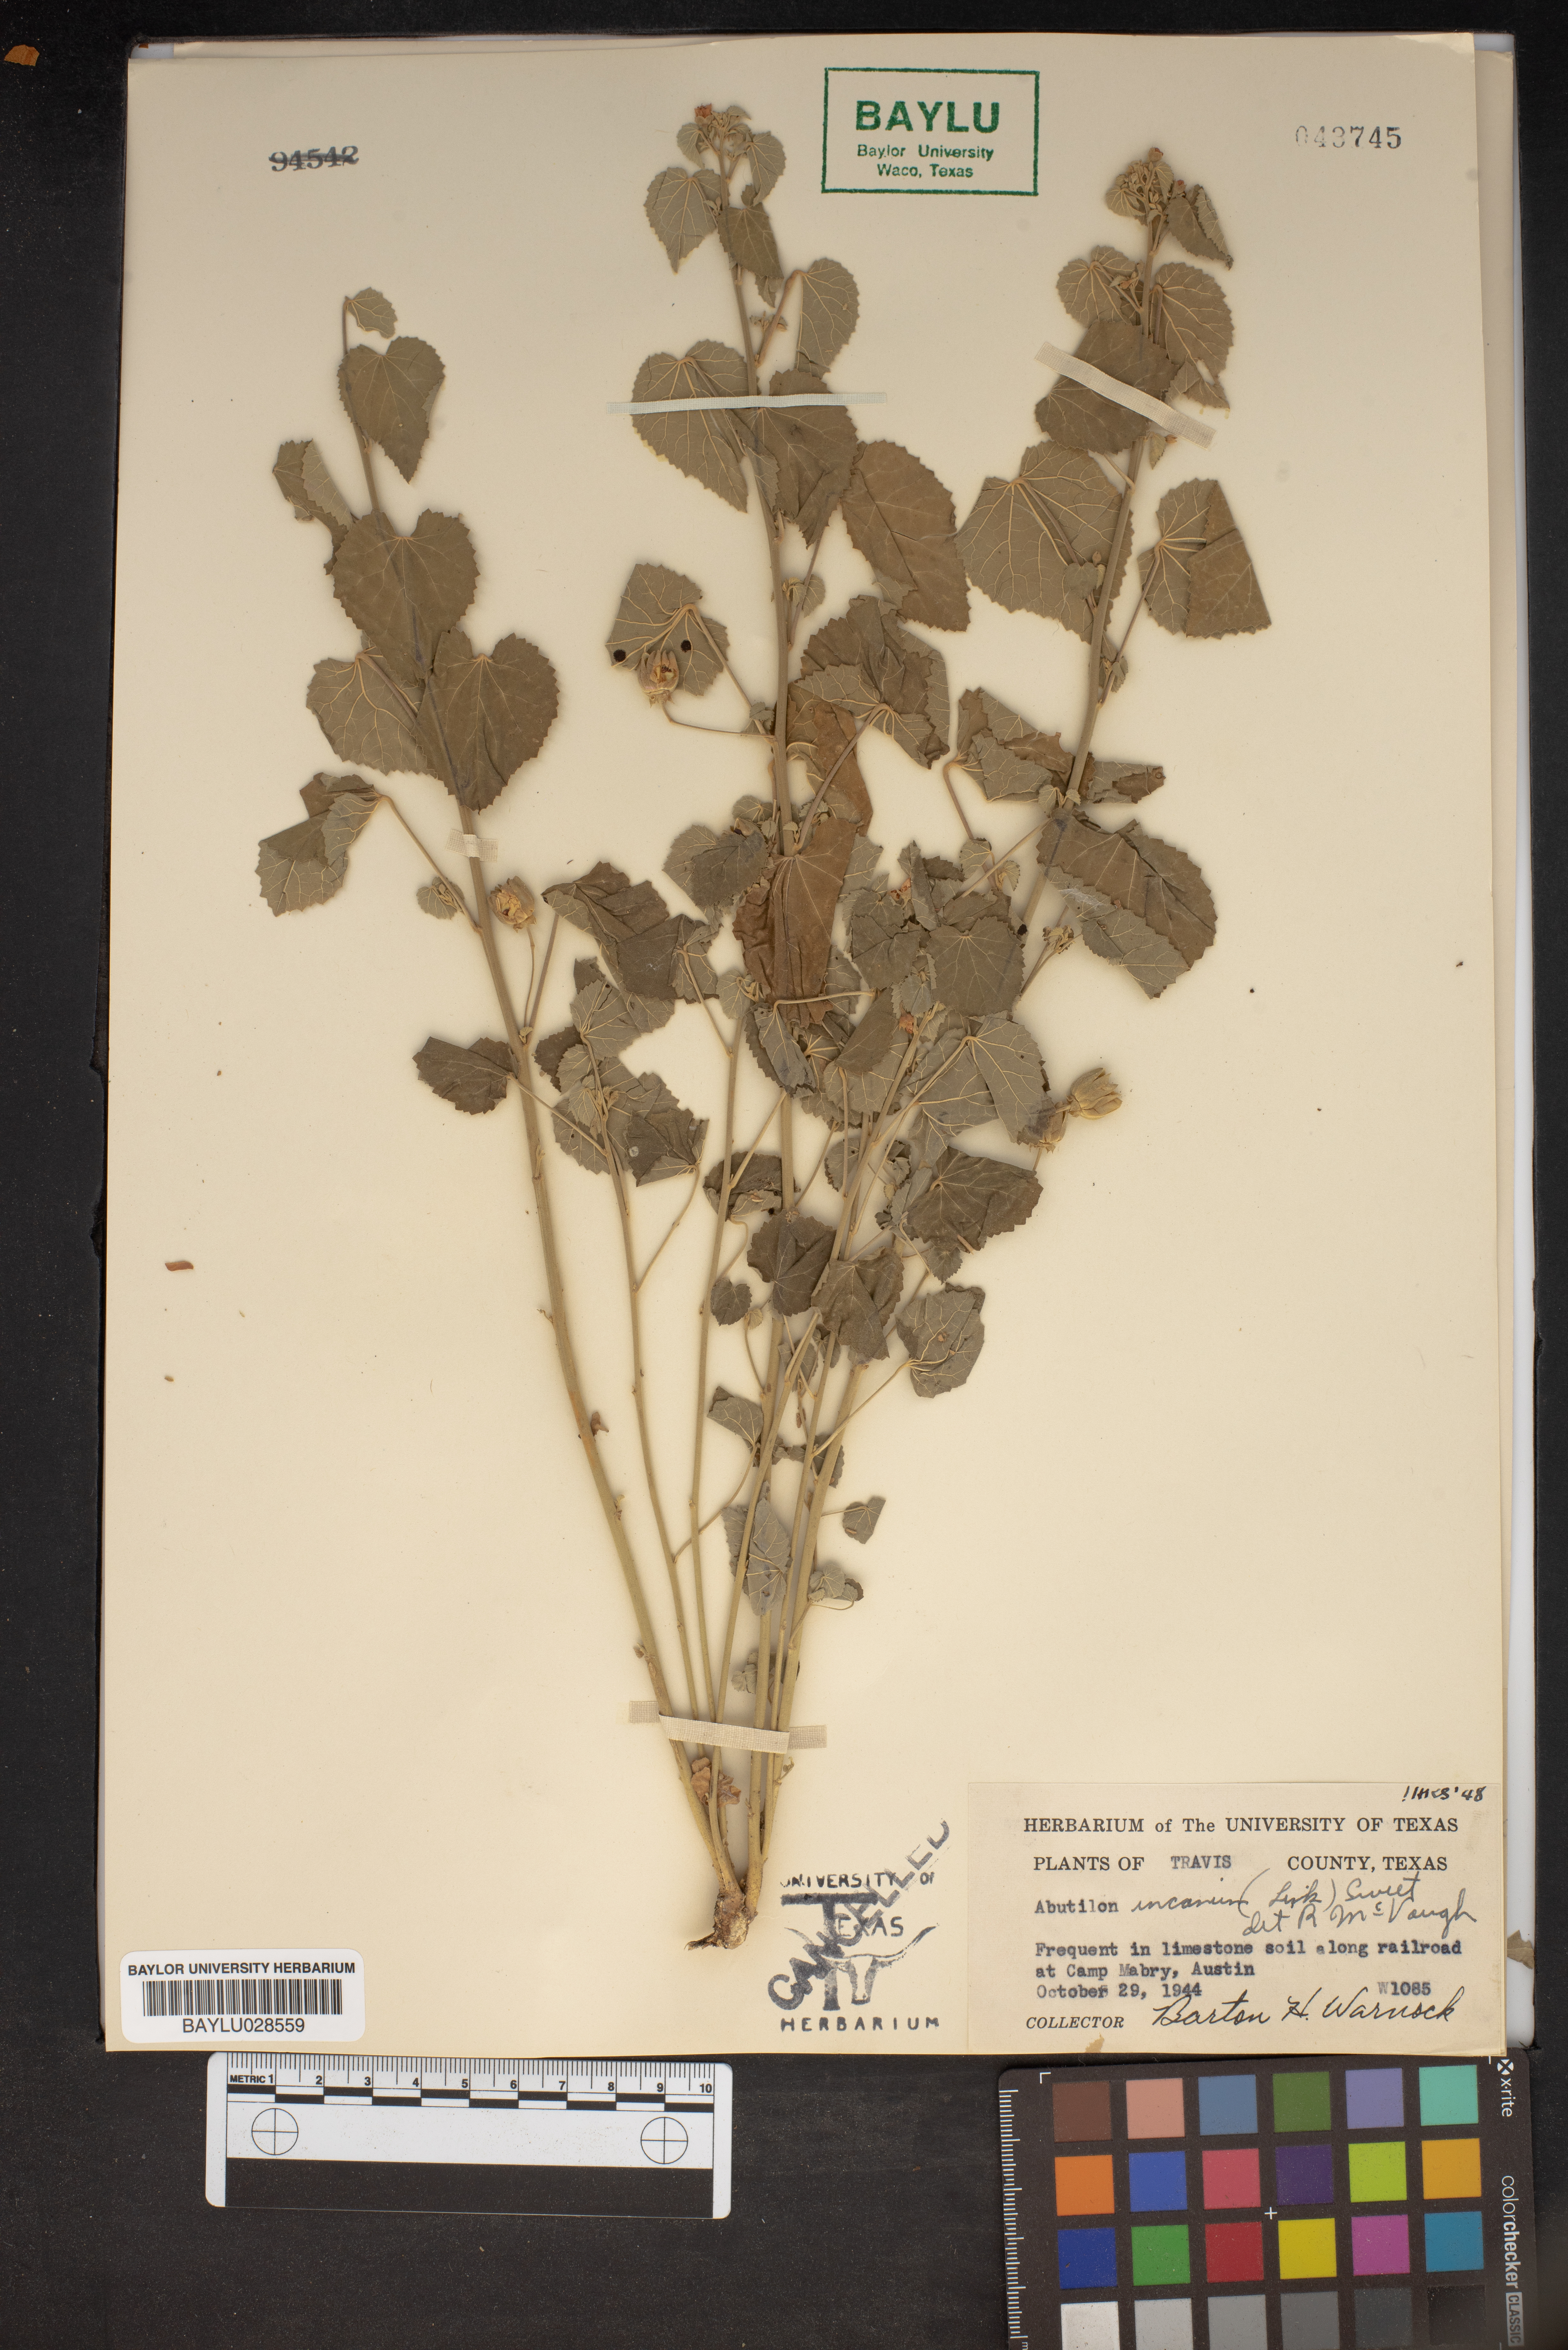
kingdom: Plantae
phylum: Tracheophyta
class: Magnoliopsida
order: Malvales
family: Malvaceae
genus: Abutilon
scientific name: Abutilon incanum
